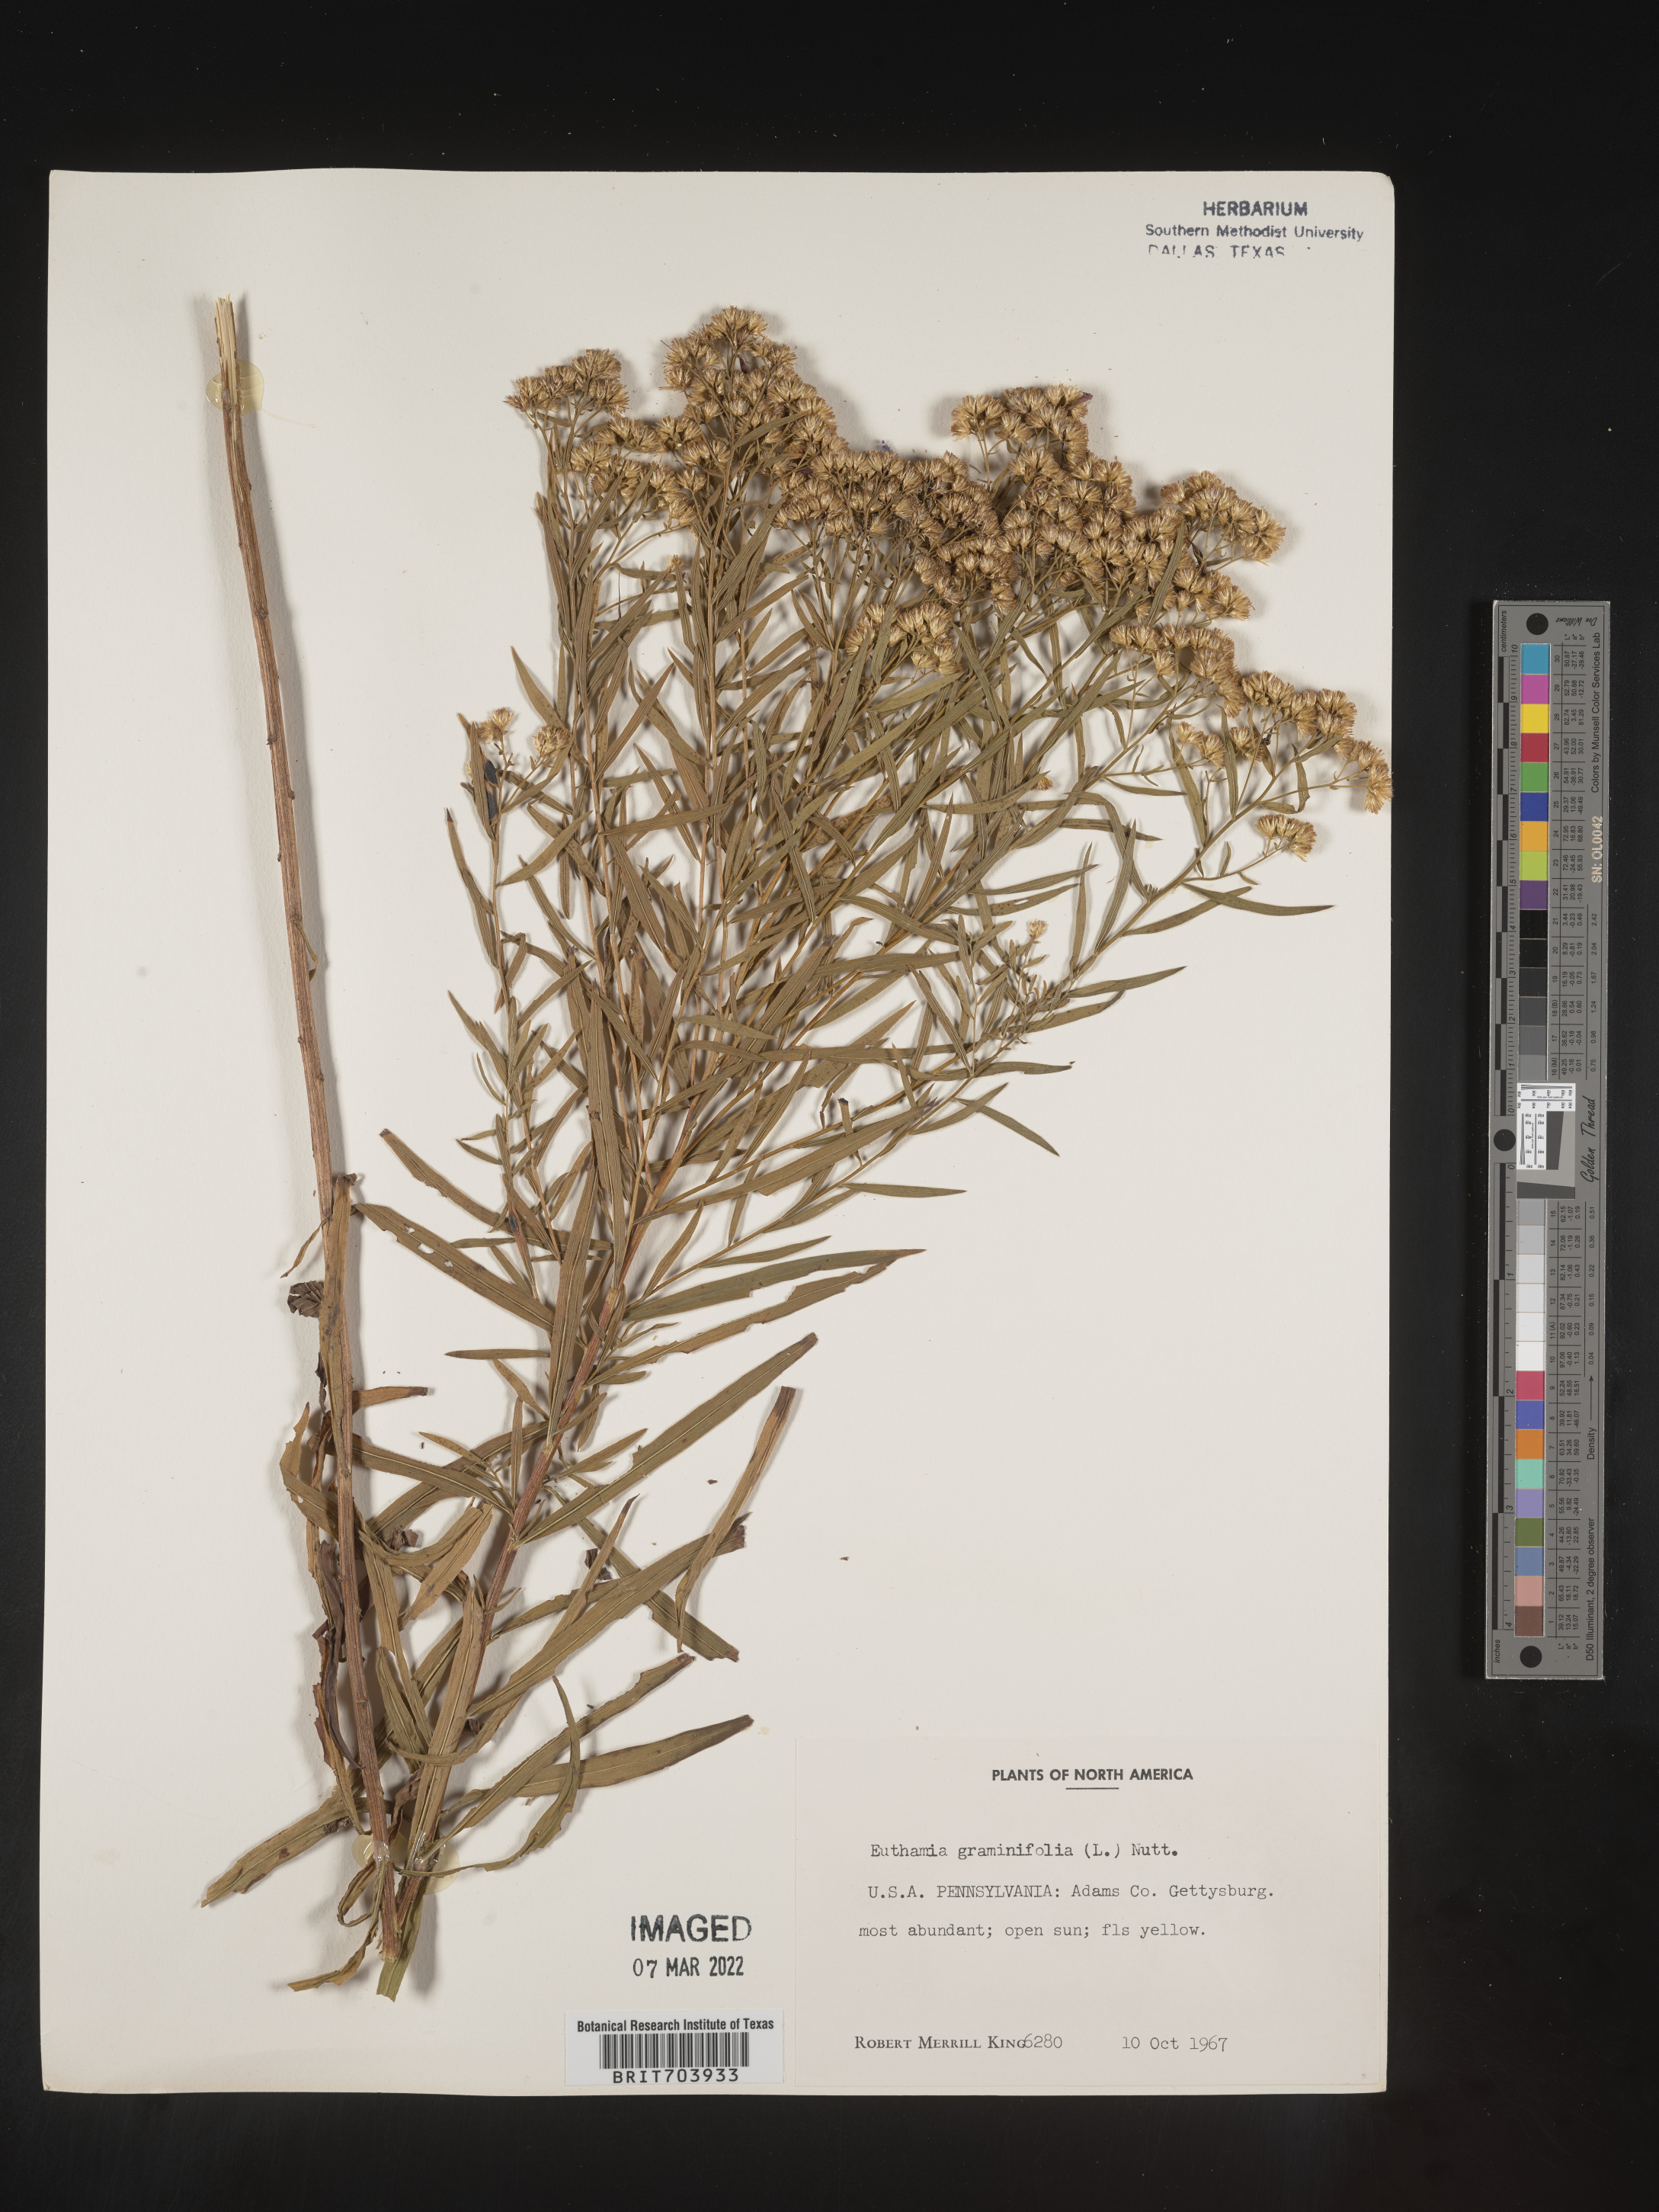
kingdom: Plantae
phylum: Tracheophyta
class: Magnoliopsida
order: Asterales
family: Asteraceae
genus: Euthamia
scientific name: Euthamia graminifolia
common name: Common goldentop
